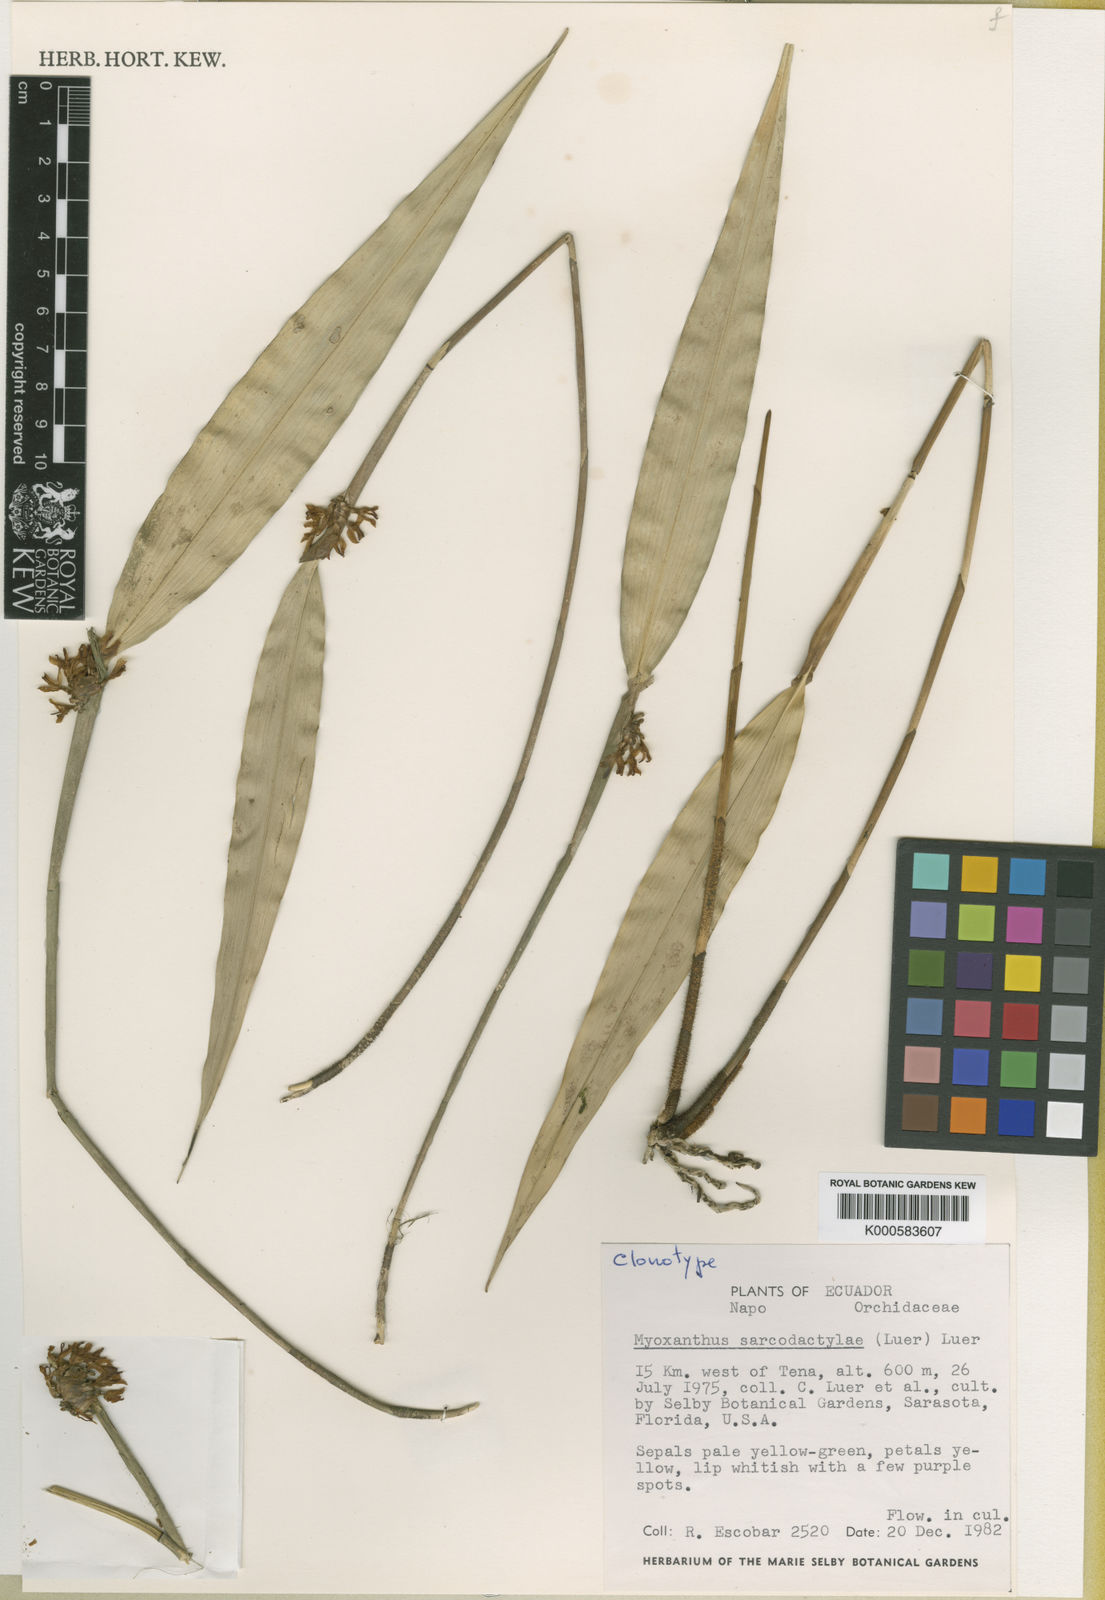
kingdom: Plantae
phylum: Tracheophyta
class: Liliopsida
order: Asparagales
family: Orchidaceae
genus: Myoxanthus
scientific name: Myoxanthus sarcodactylae
